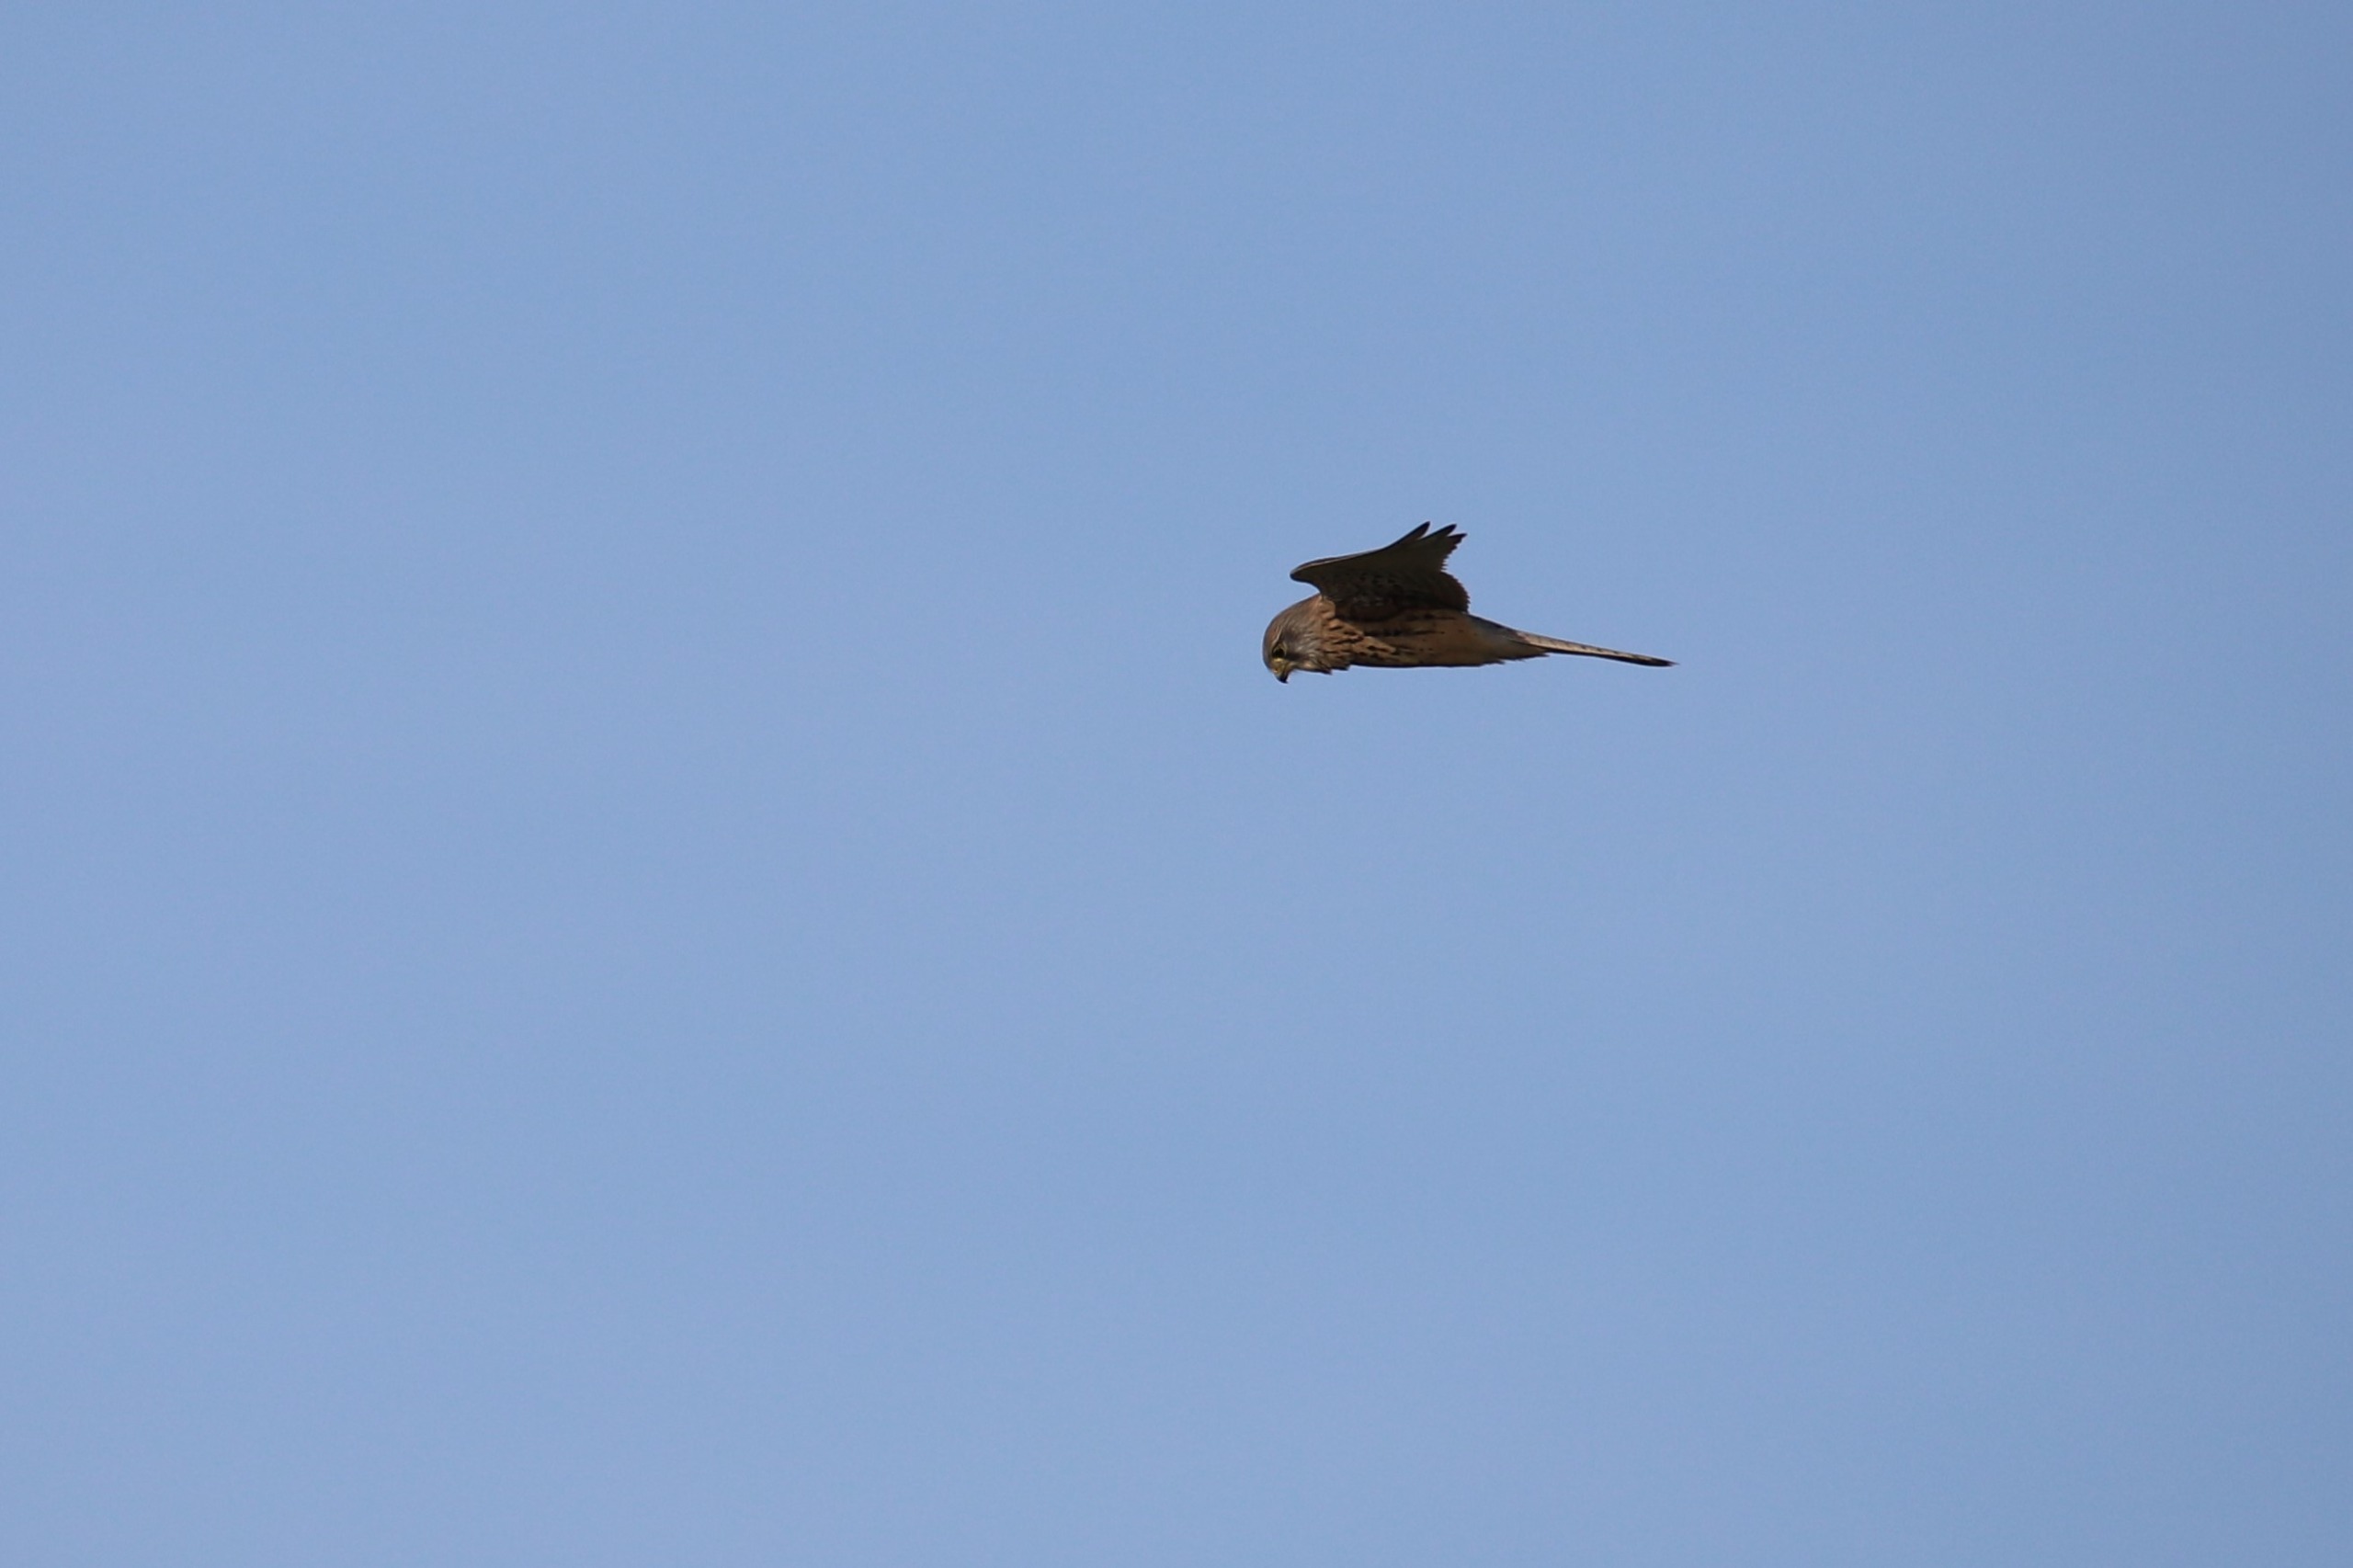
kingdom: Animalia
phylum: Chordata
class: Aves
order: Falconiformes
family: Falconidae
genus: Falco
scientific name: Falco tinnunculus
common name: Tårnfalk
